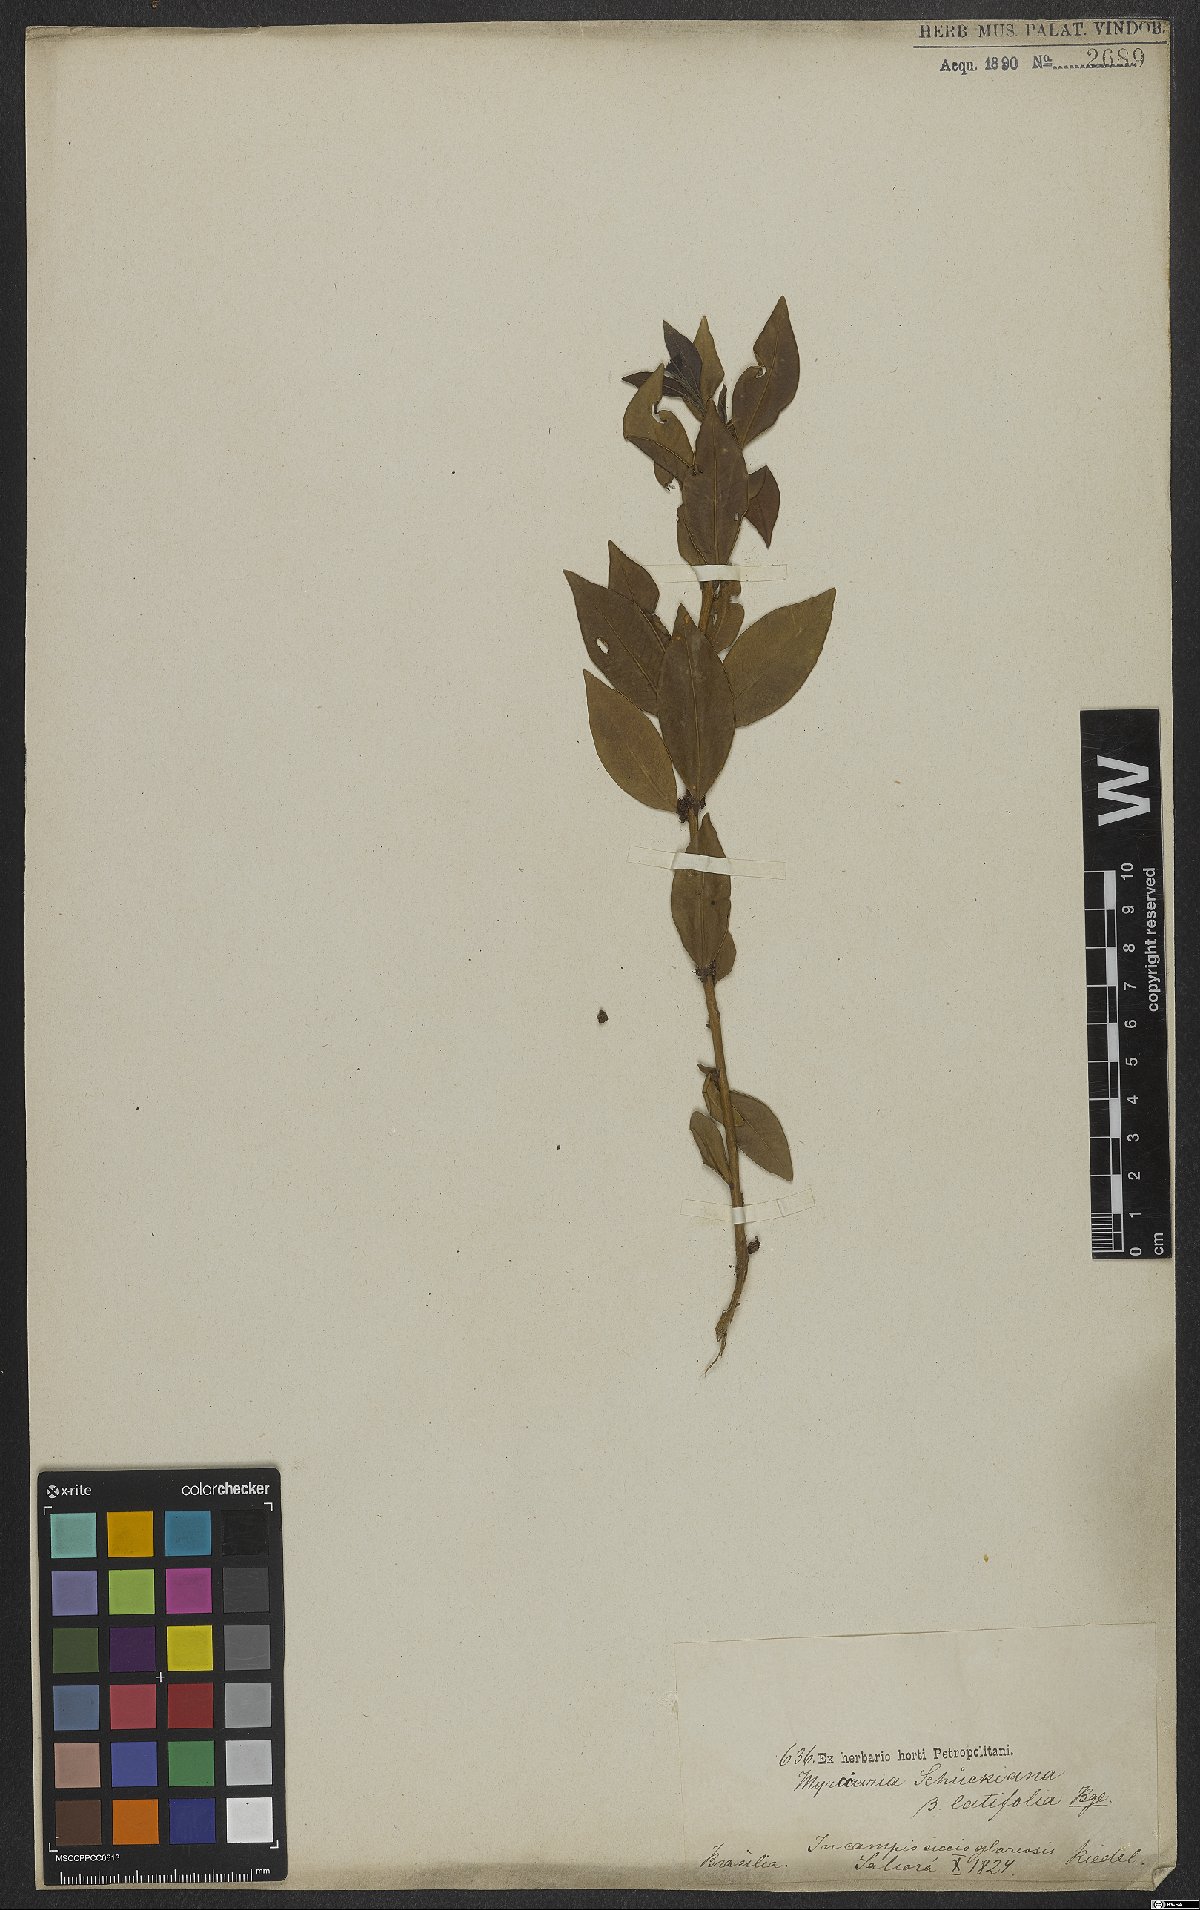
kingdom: Plantae
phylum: Tracheophyta
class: Magnoliopsida
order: Myrtales
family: Myrtaceae
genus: Eugenia
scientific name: Eugenia verticillata
